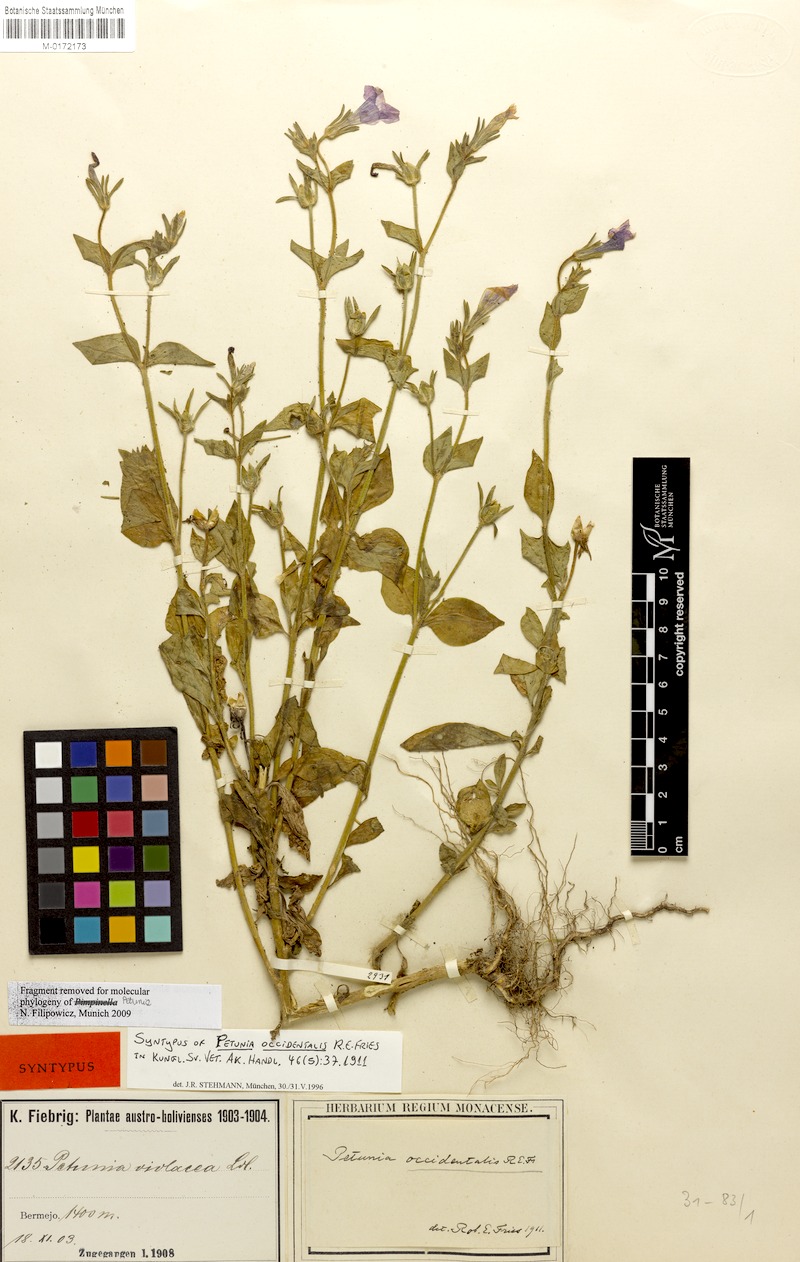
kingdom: Plantae
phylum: Tracheophyta
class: Magnoliopsida
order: Solanales
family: Solanaceae
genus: Petunia
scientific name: Petunia occidentalis
